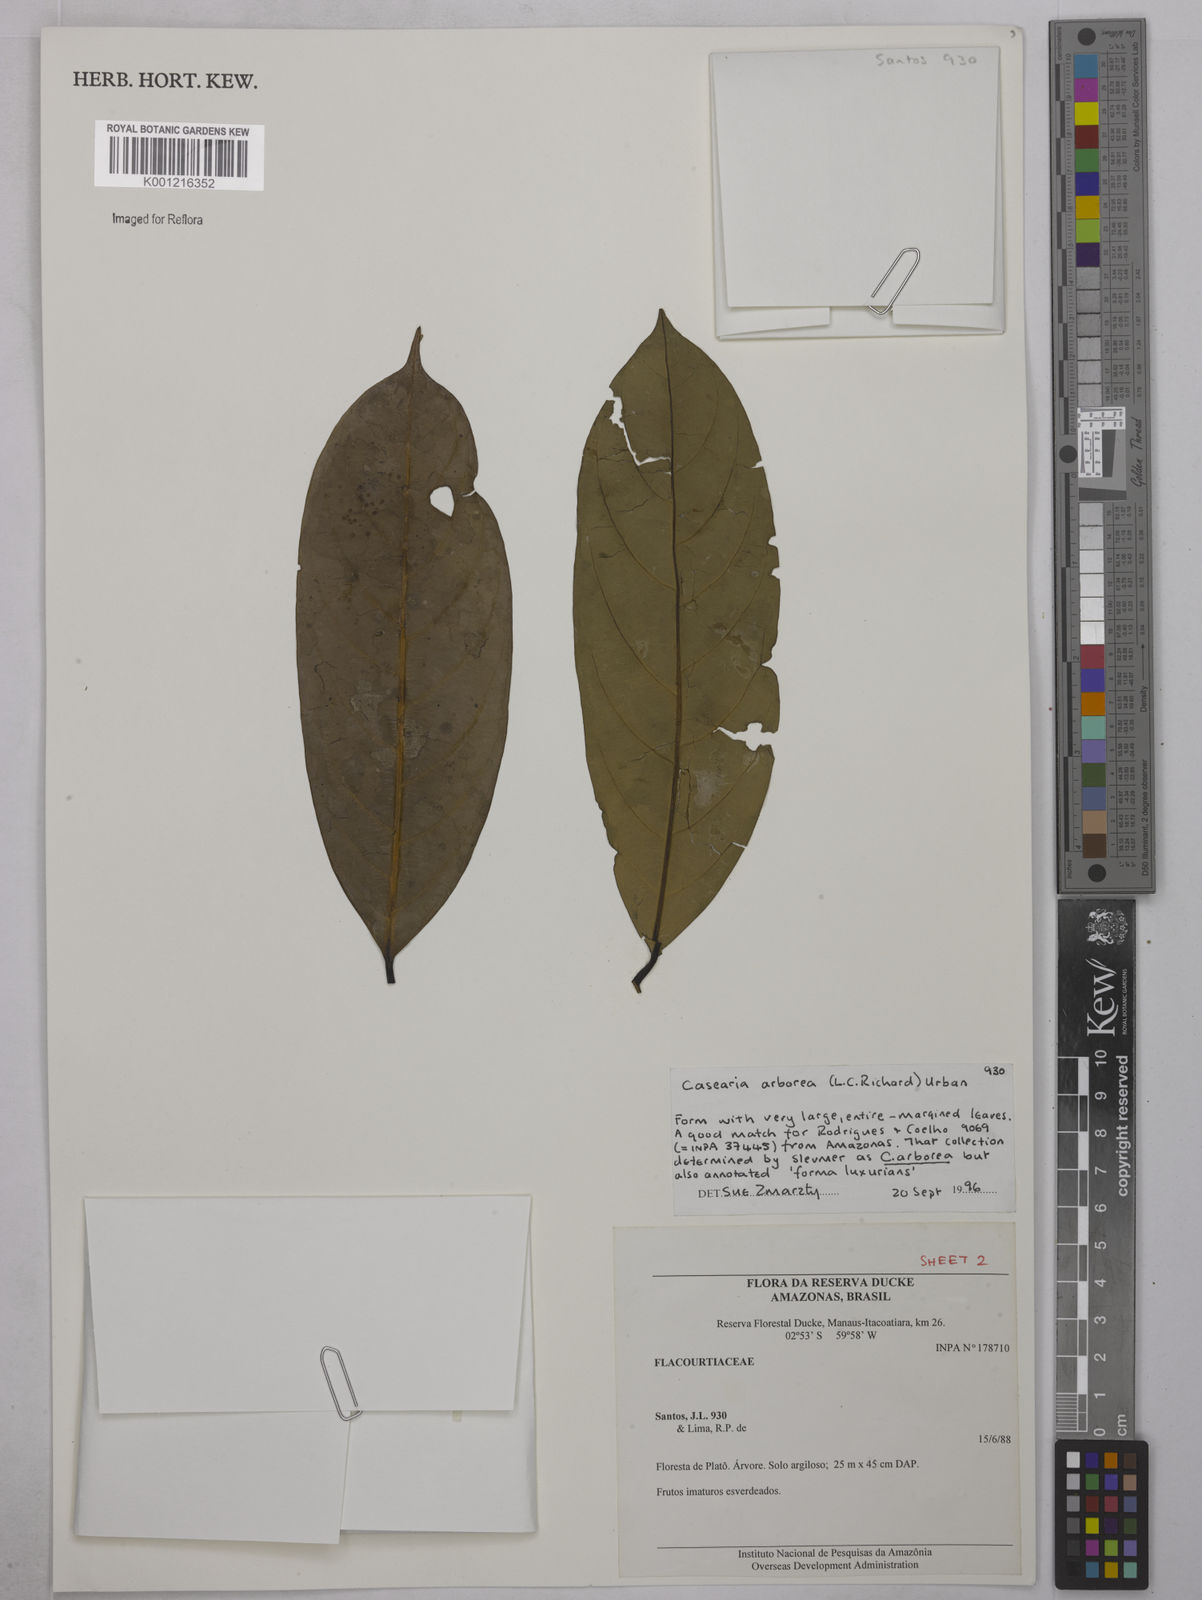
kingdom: Plantae
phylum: Tracheophyta
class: Magnoliopsida
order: Malpighiales
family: Salicaceae
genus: Casearia
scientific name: Casearia arborea
